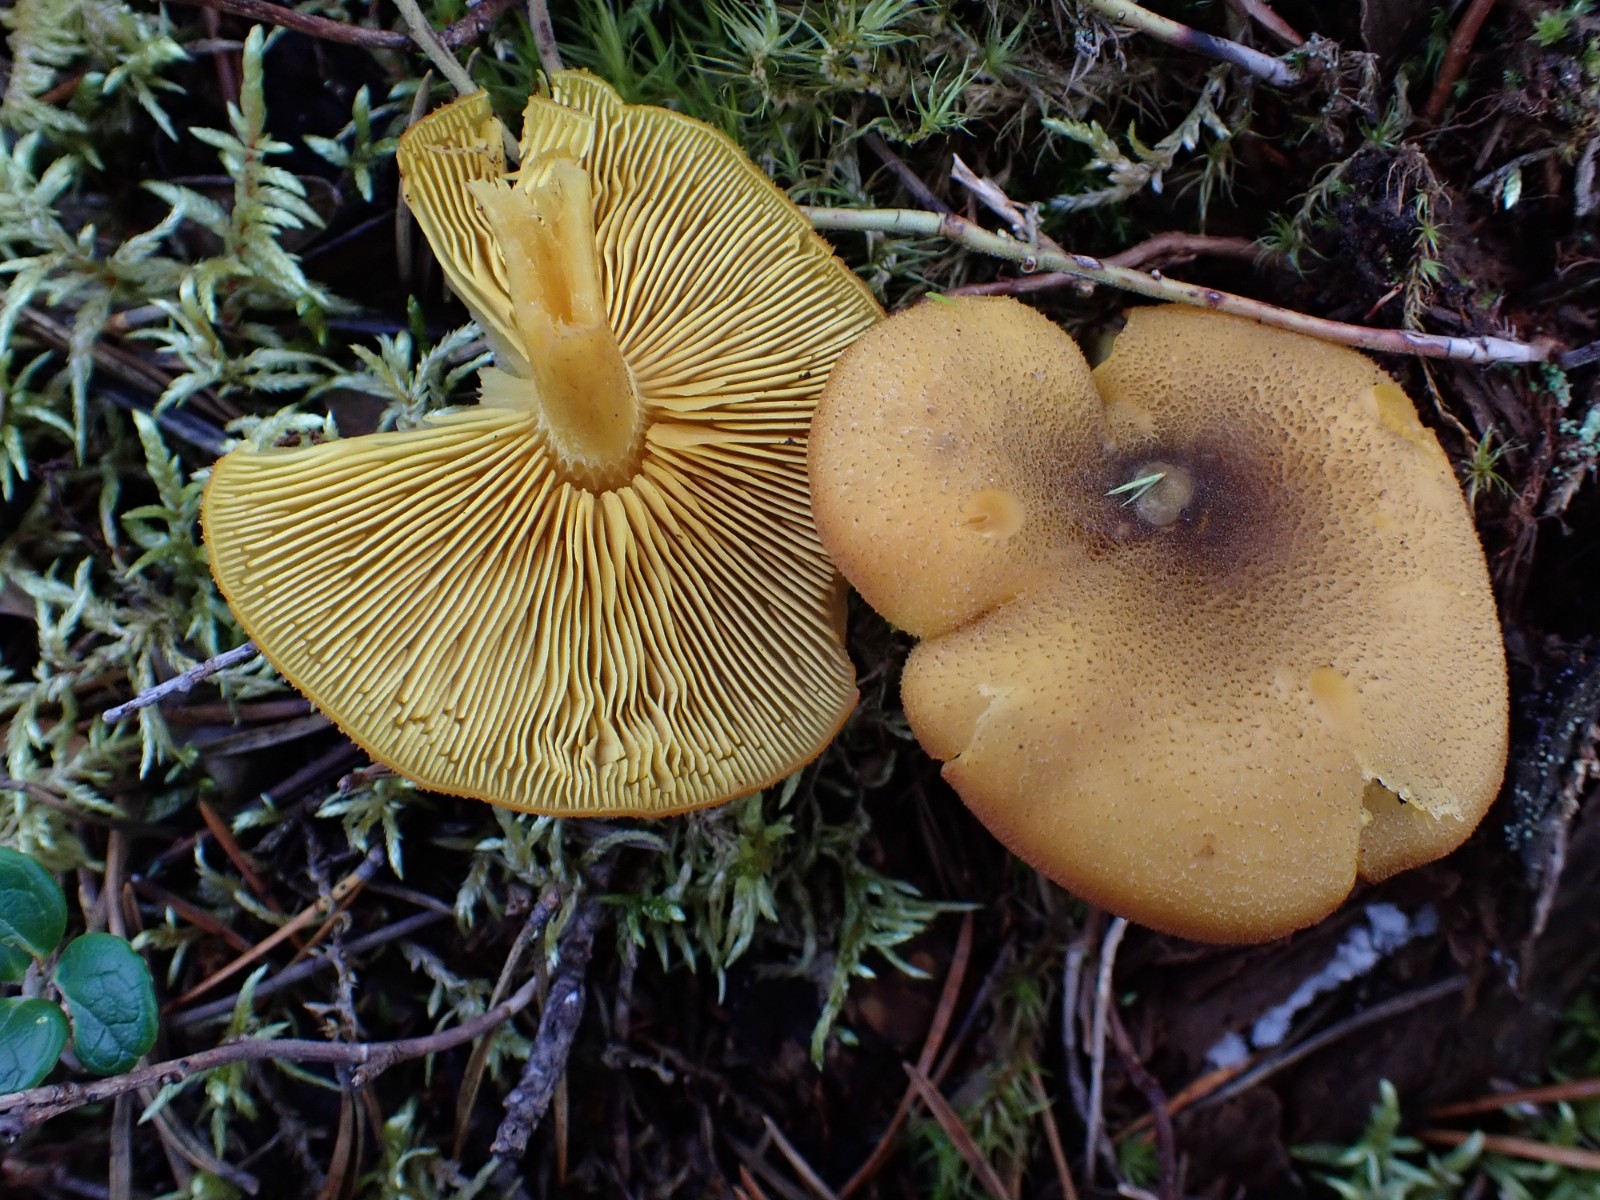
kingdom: Fungi
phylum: Basidiomycota
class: Agaricomycetes
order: Agaricales
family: Tricholomataceae
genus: Tricholomopsis
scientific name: Tricholomopsis decora
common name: sortskællet væbnerhat
